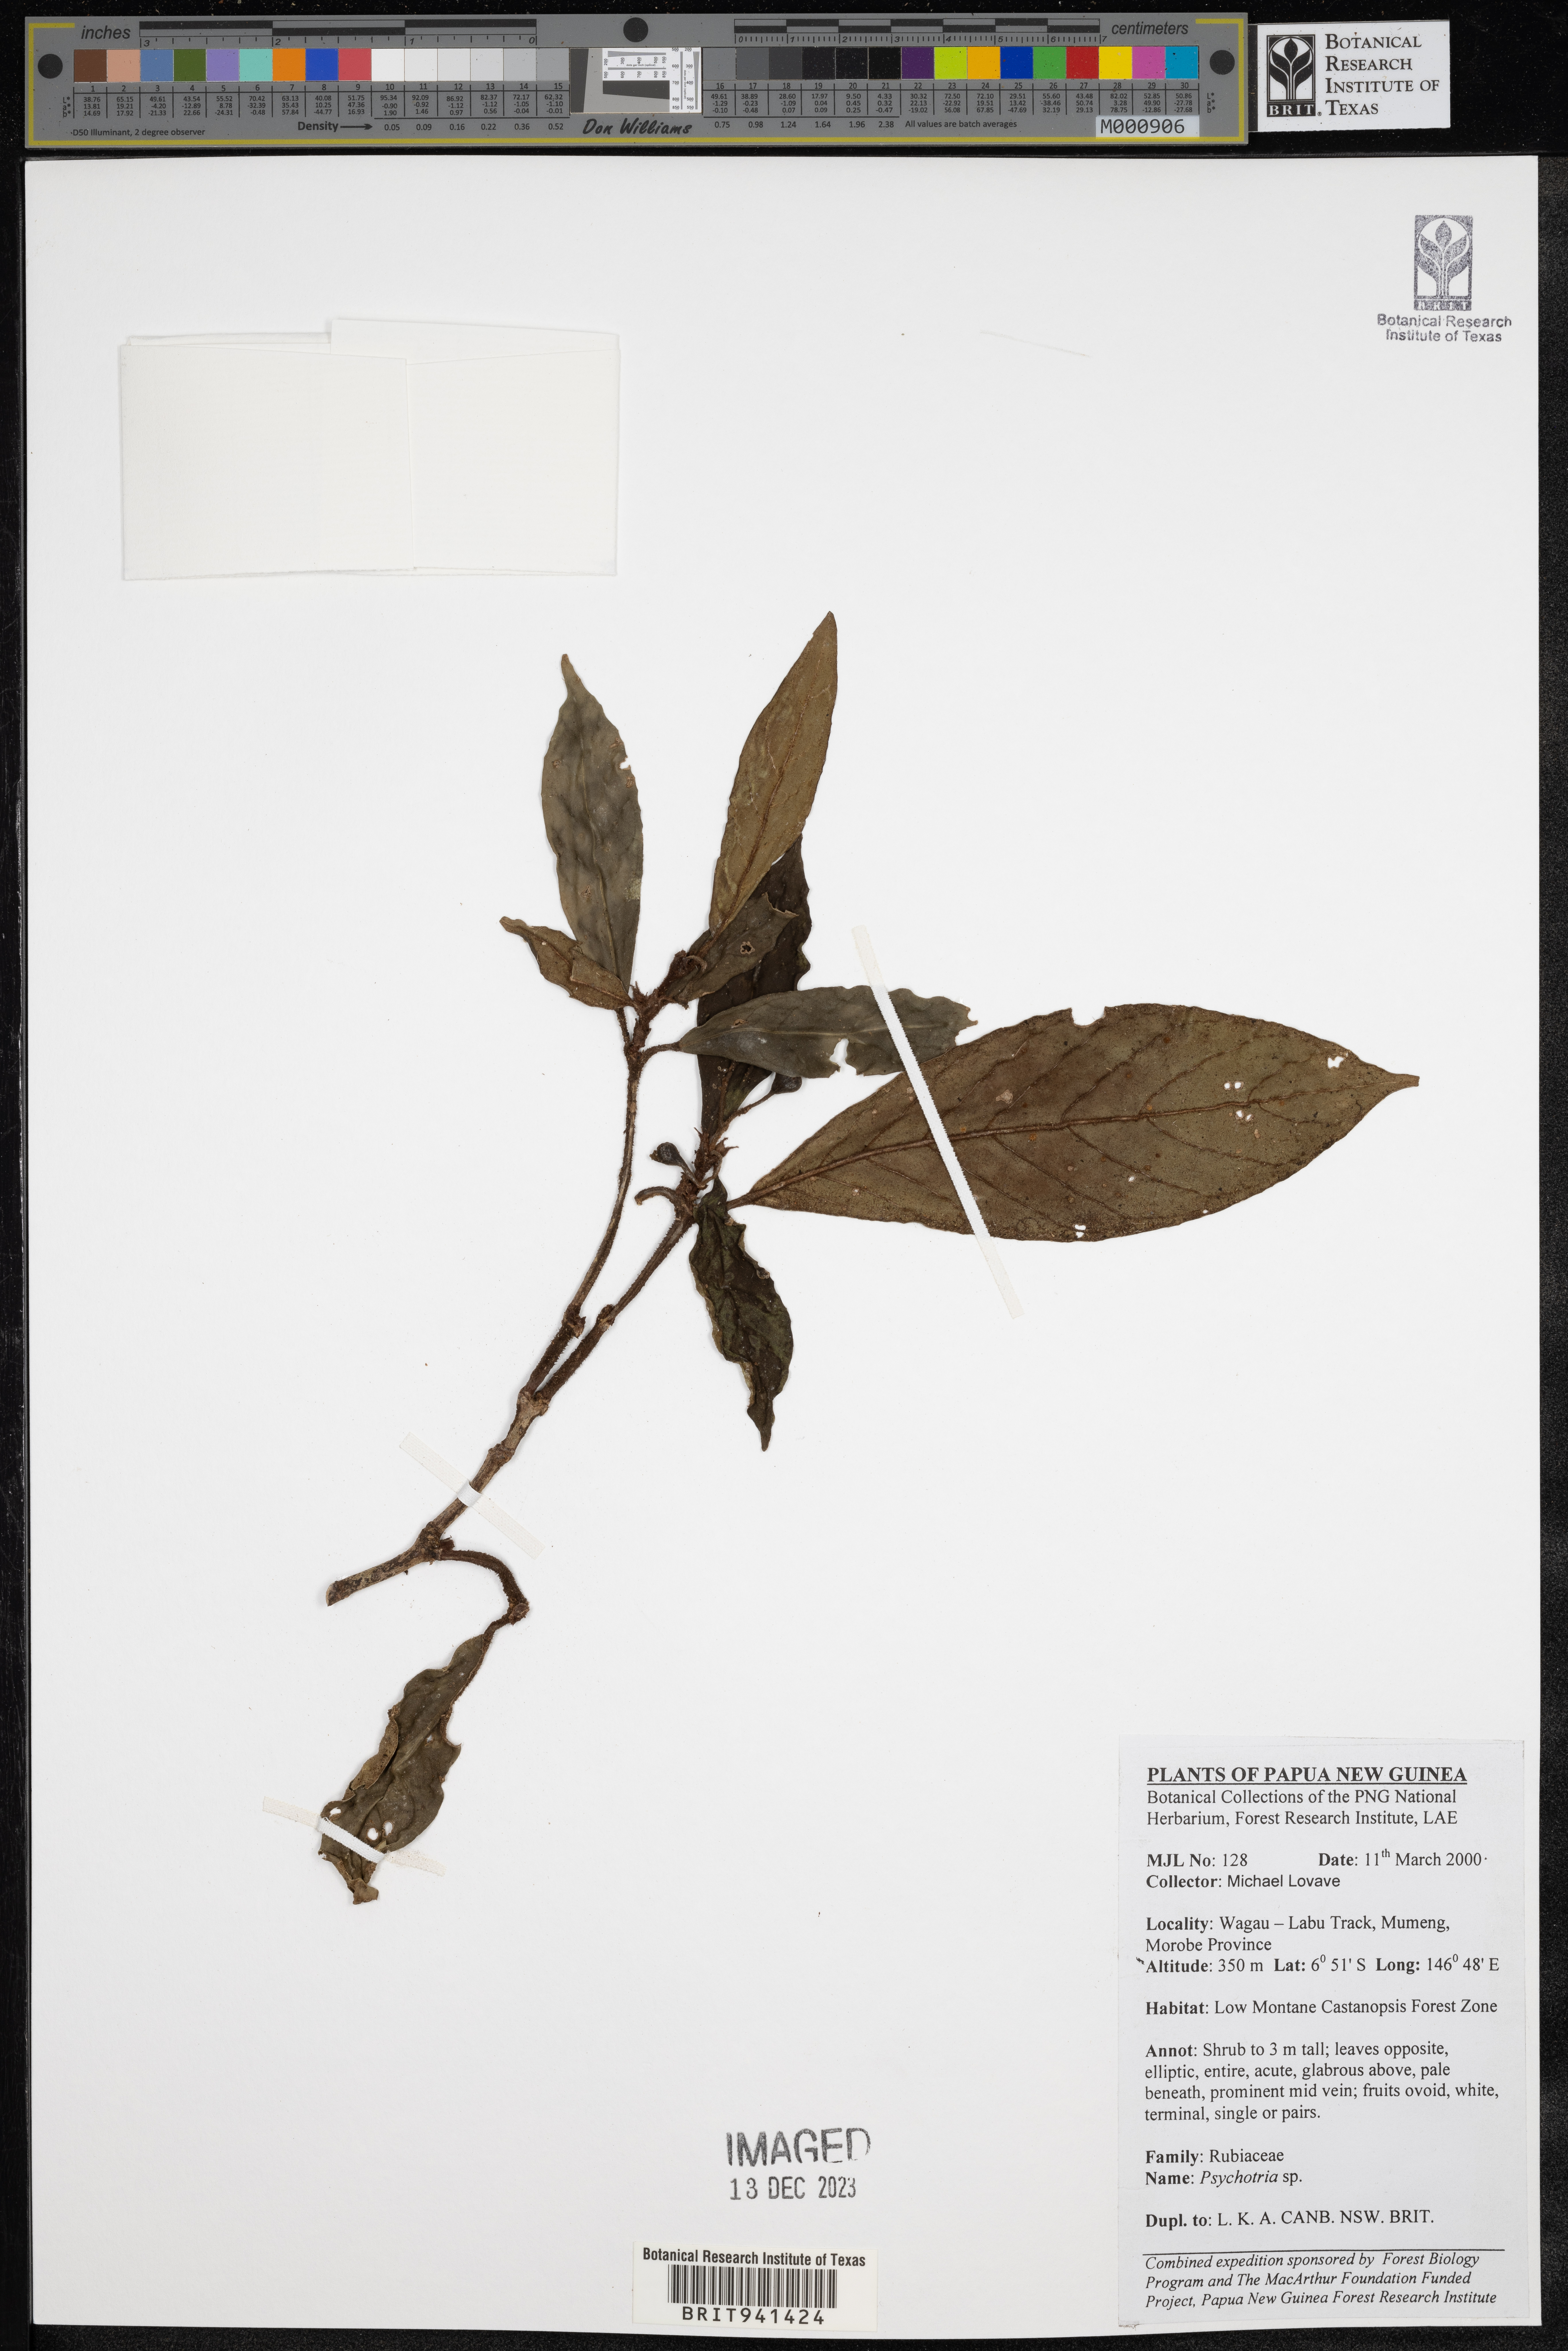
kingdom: Plantae
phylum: Tracheophyta
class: Magnoliopsida
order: Gentianales
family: Rubiaceae
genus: Psychotria
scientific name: Psychotria
